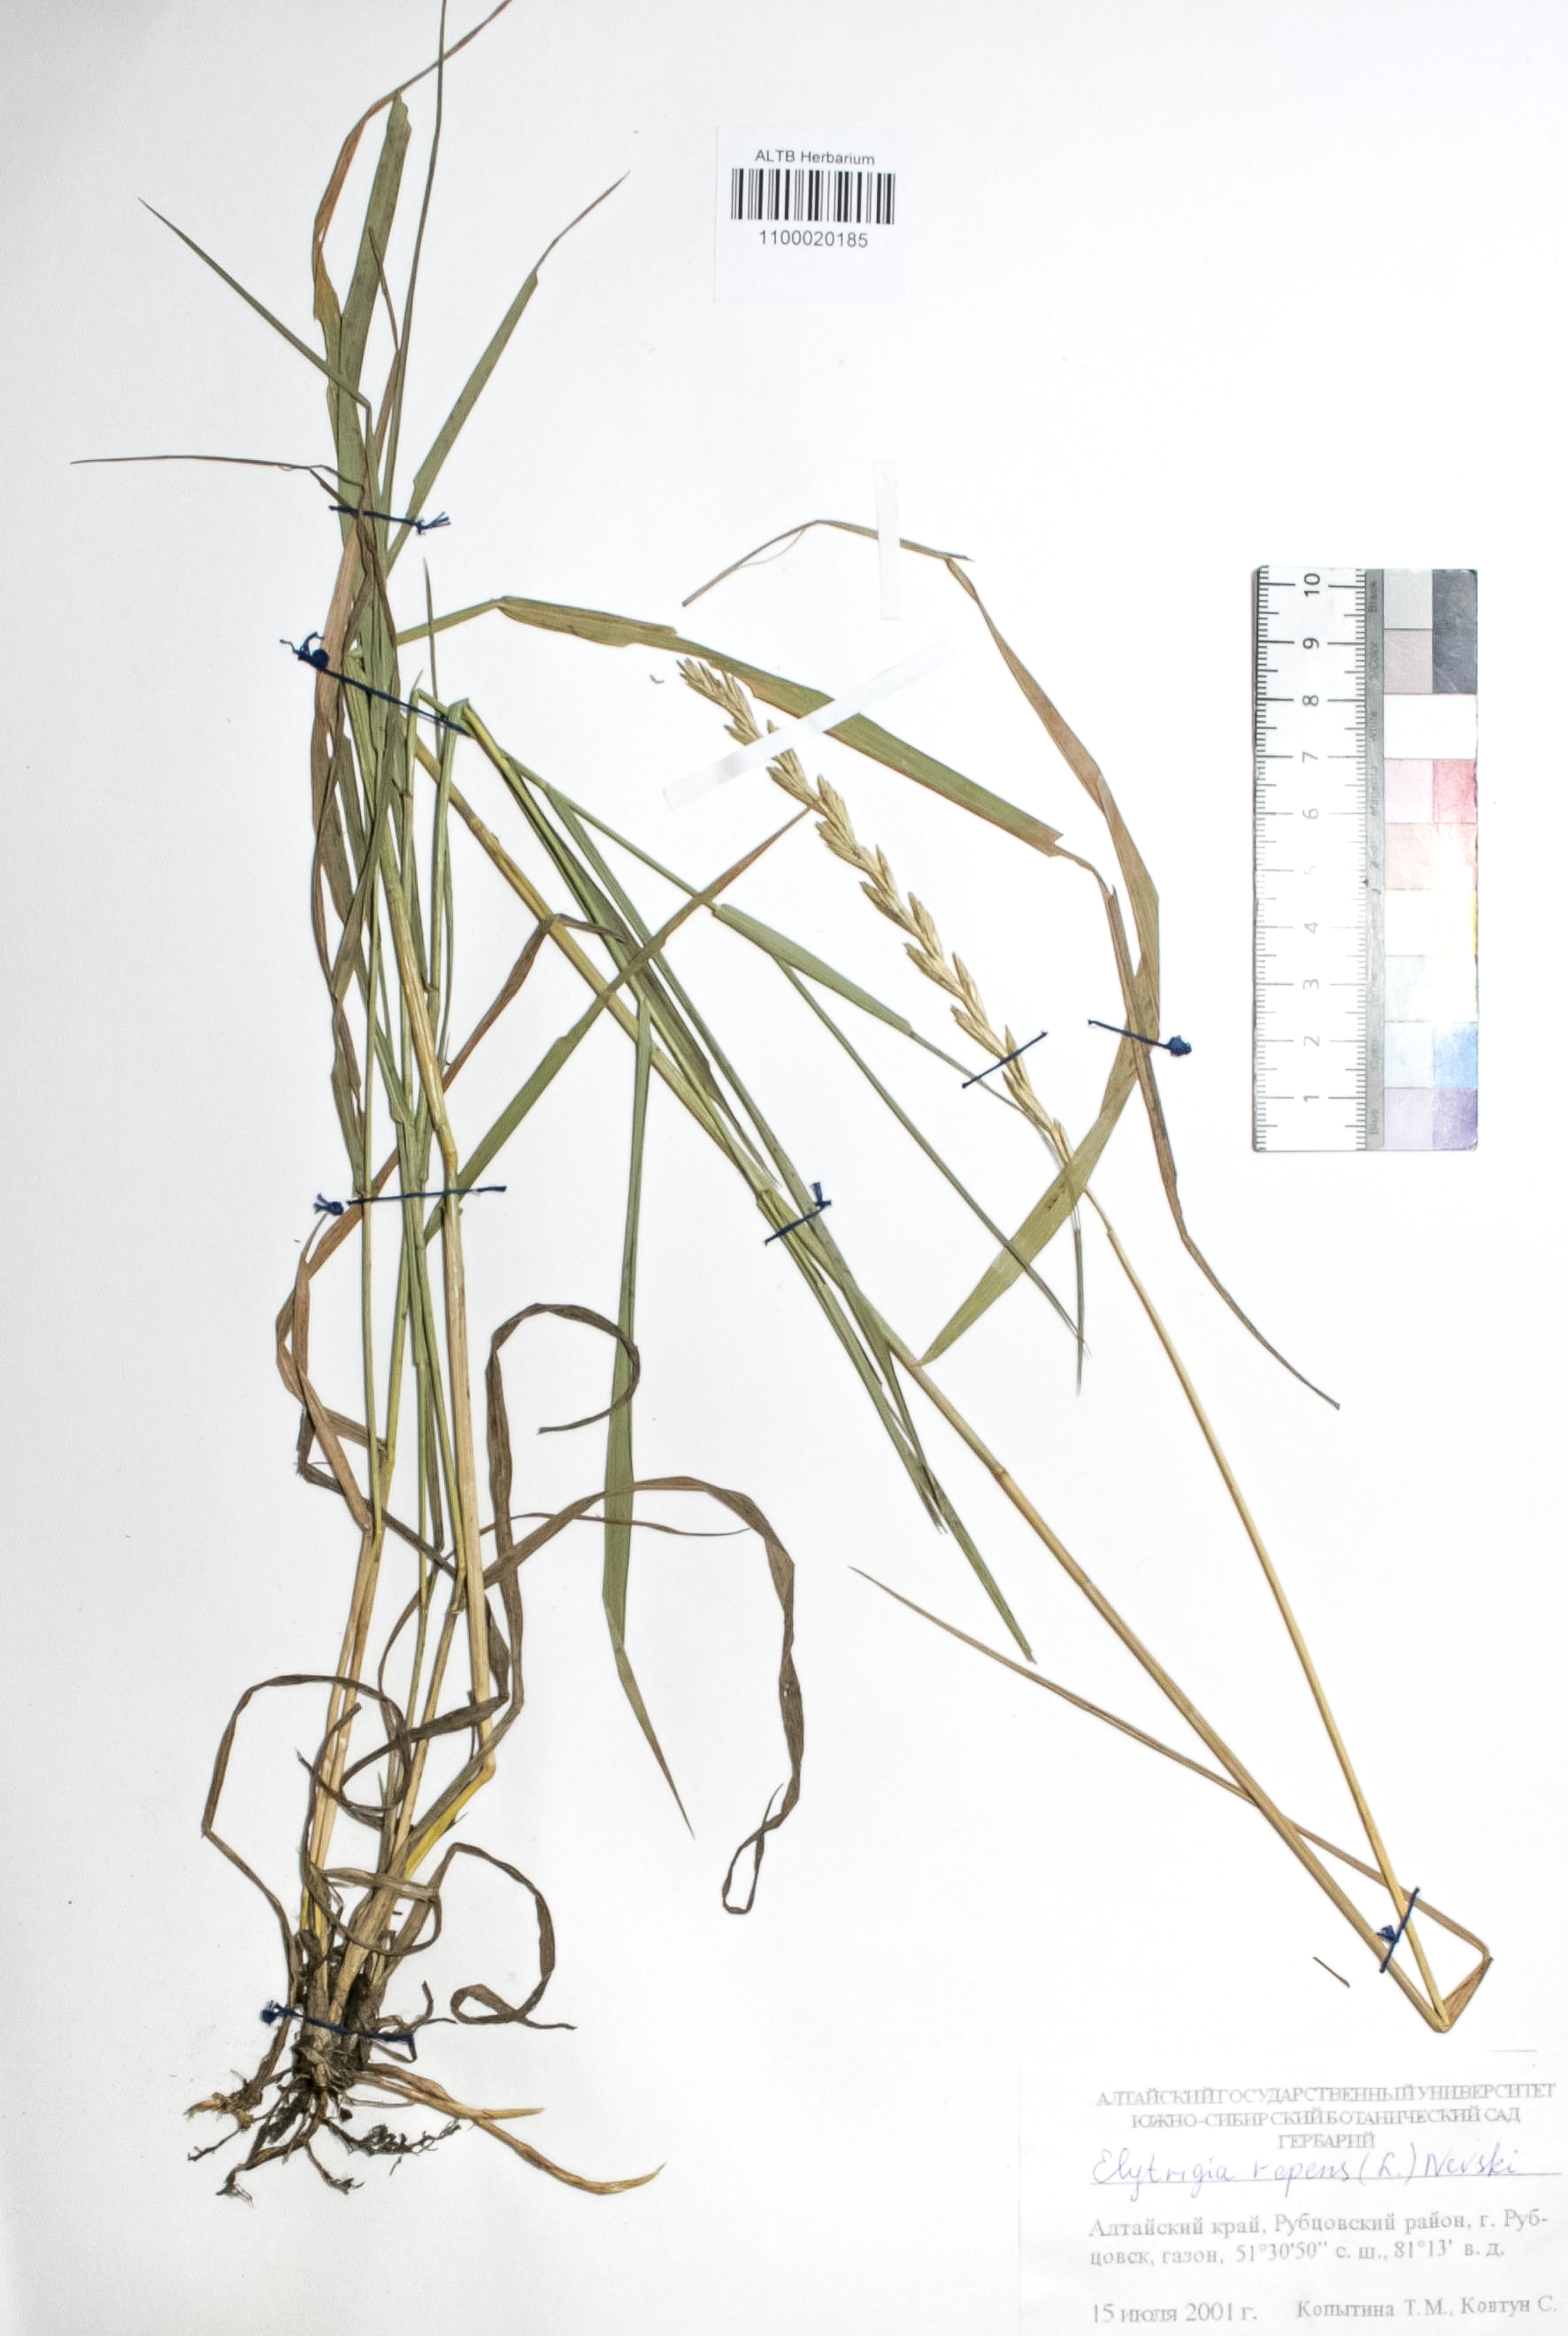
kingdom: Plantae
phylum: Tracheophyta
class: Liliopsida
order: Poales
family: Poaceae
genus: Elymus
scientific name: Elymus repens
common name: Quackgrass
